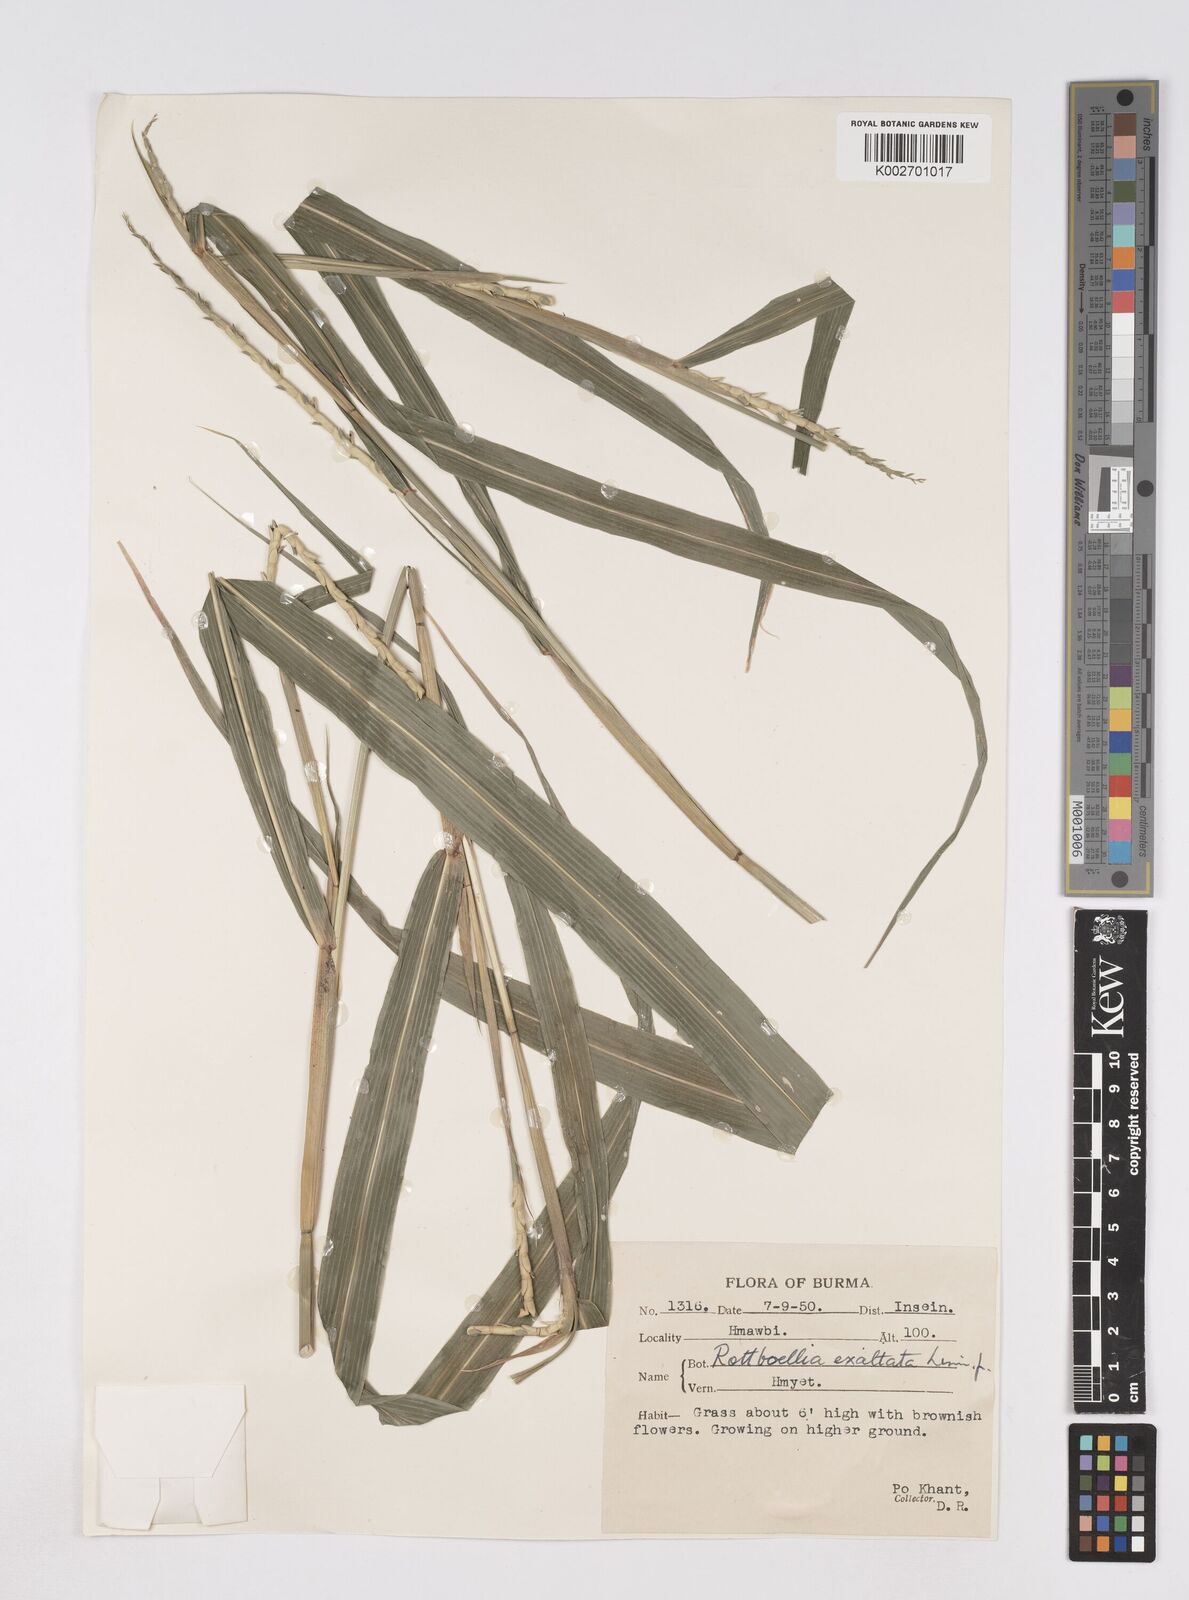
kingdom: Plantae
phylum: Tracheophyta
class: Liliopsida
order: Poales
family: Poaceae
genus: Ophiuros
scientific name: Ophiuros exaltatus
